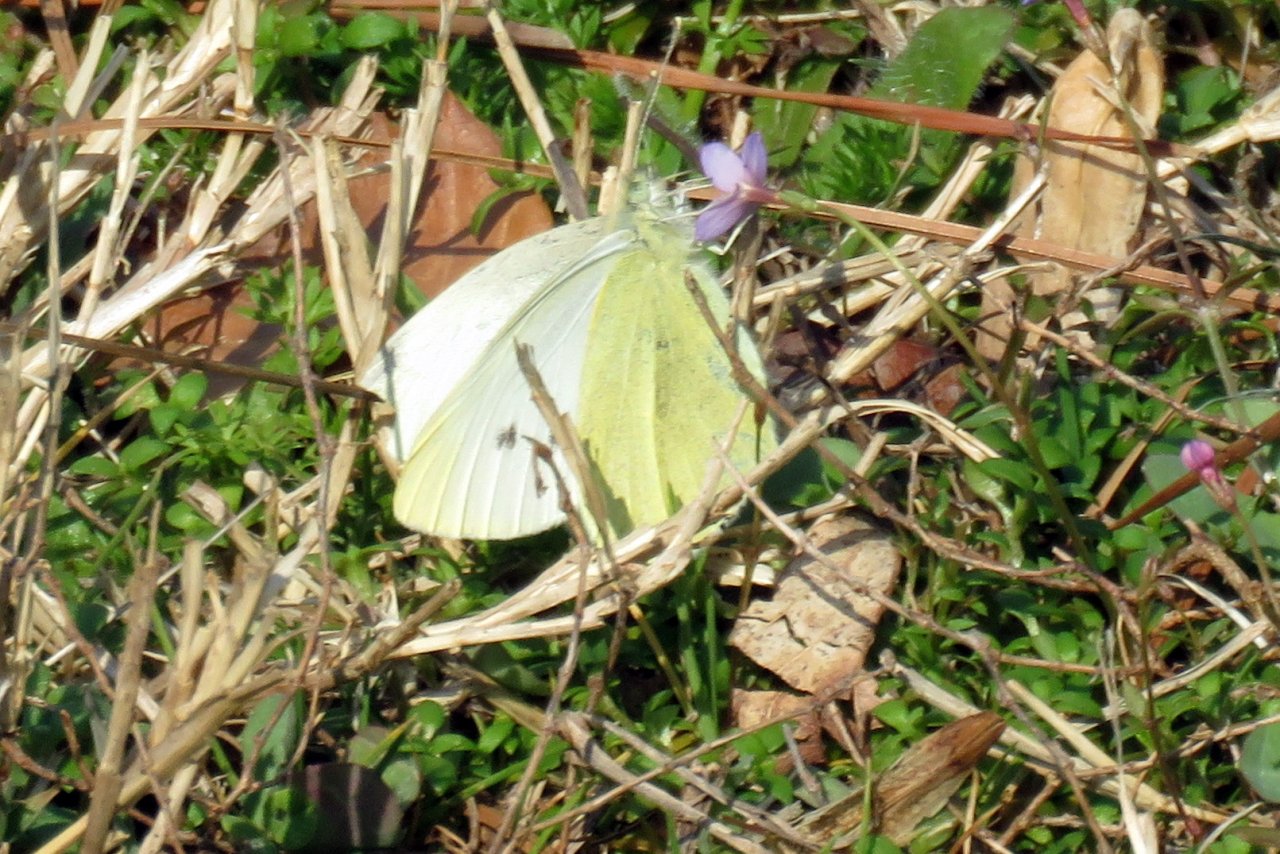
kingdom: Animalia
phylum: Arthropoda
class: Insecta
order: Lepidoptera
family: Pieridae
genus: Pieris
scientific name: Pieris rapae
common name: Cabbage White
